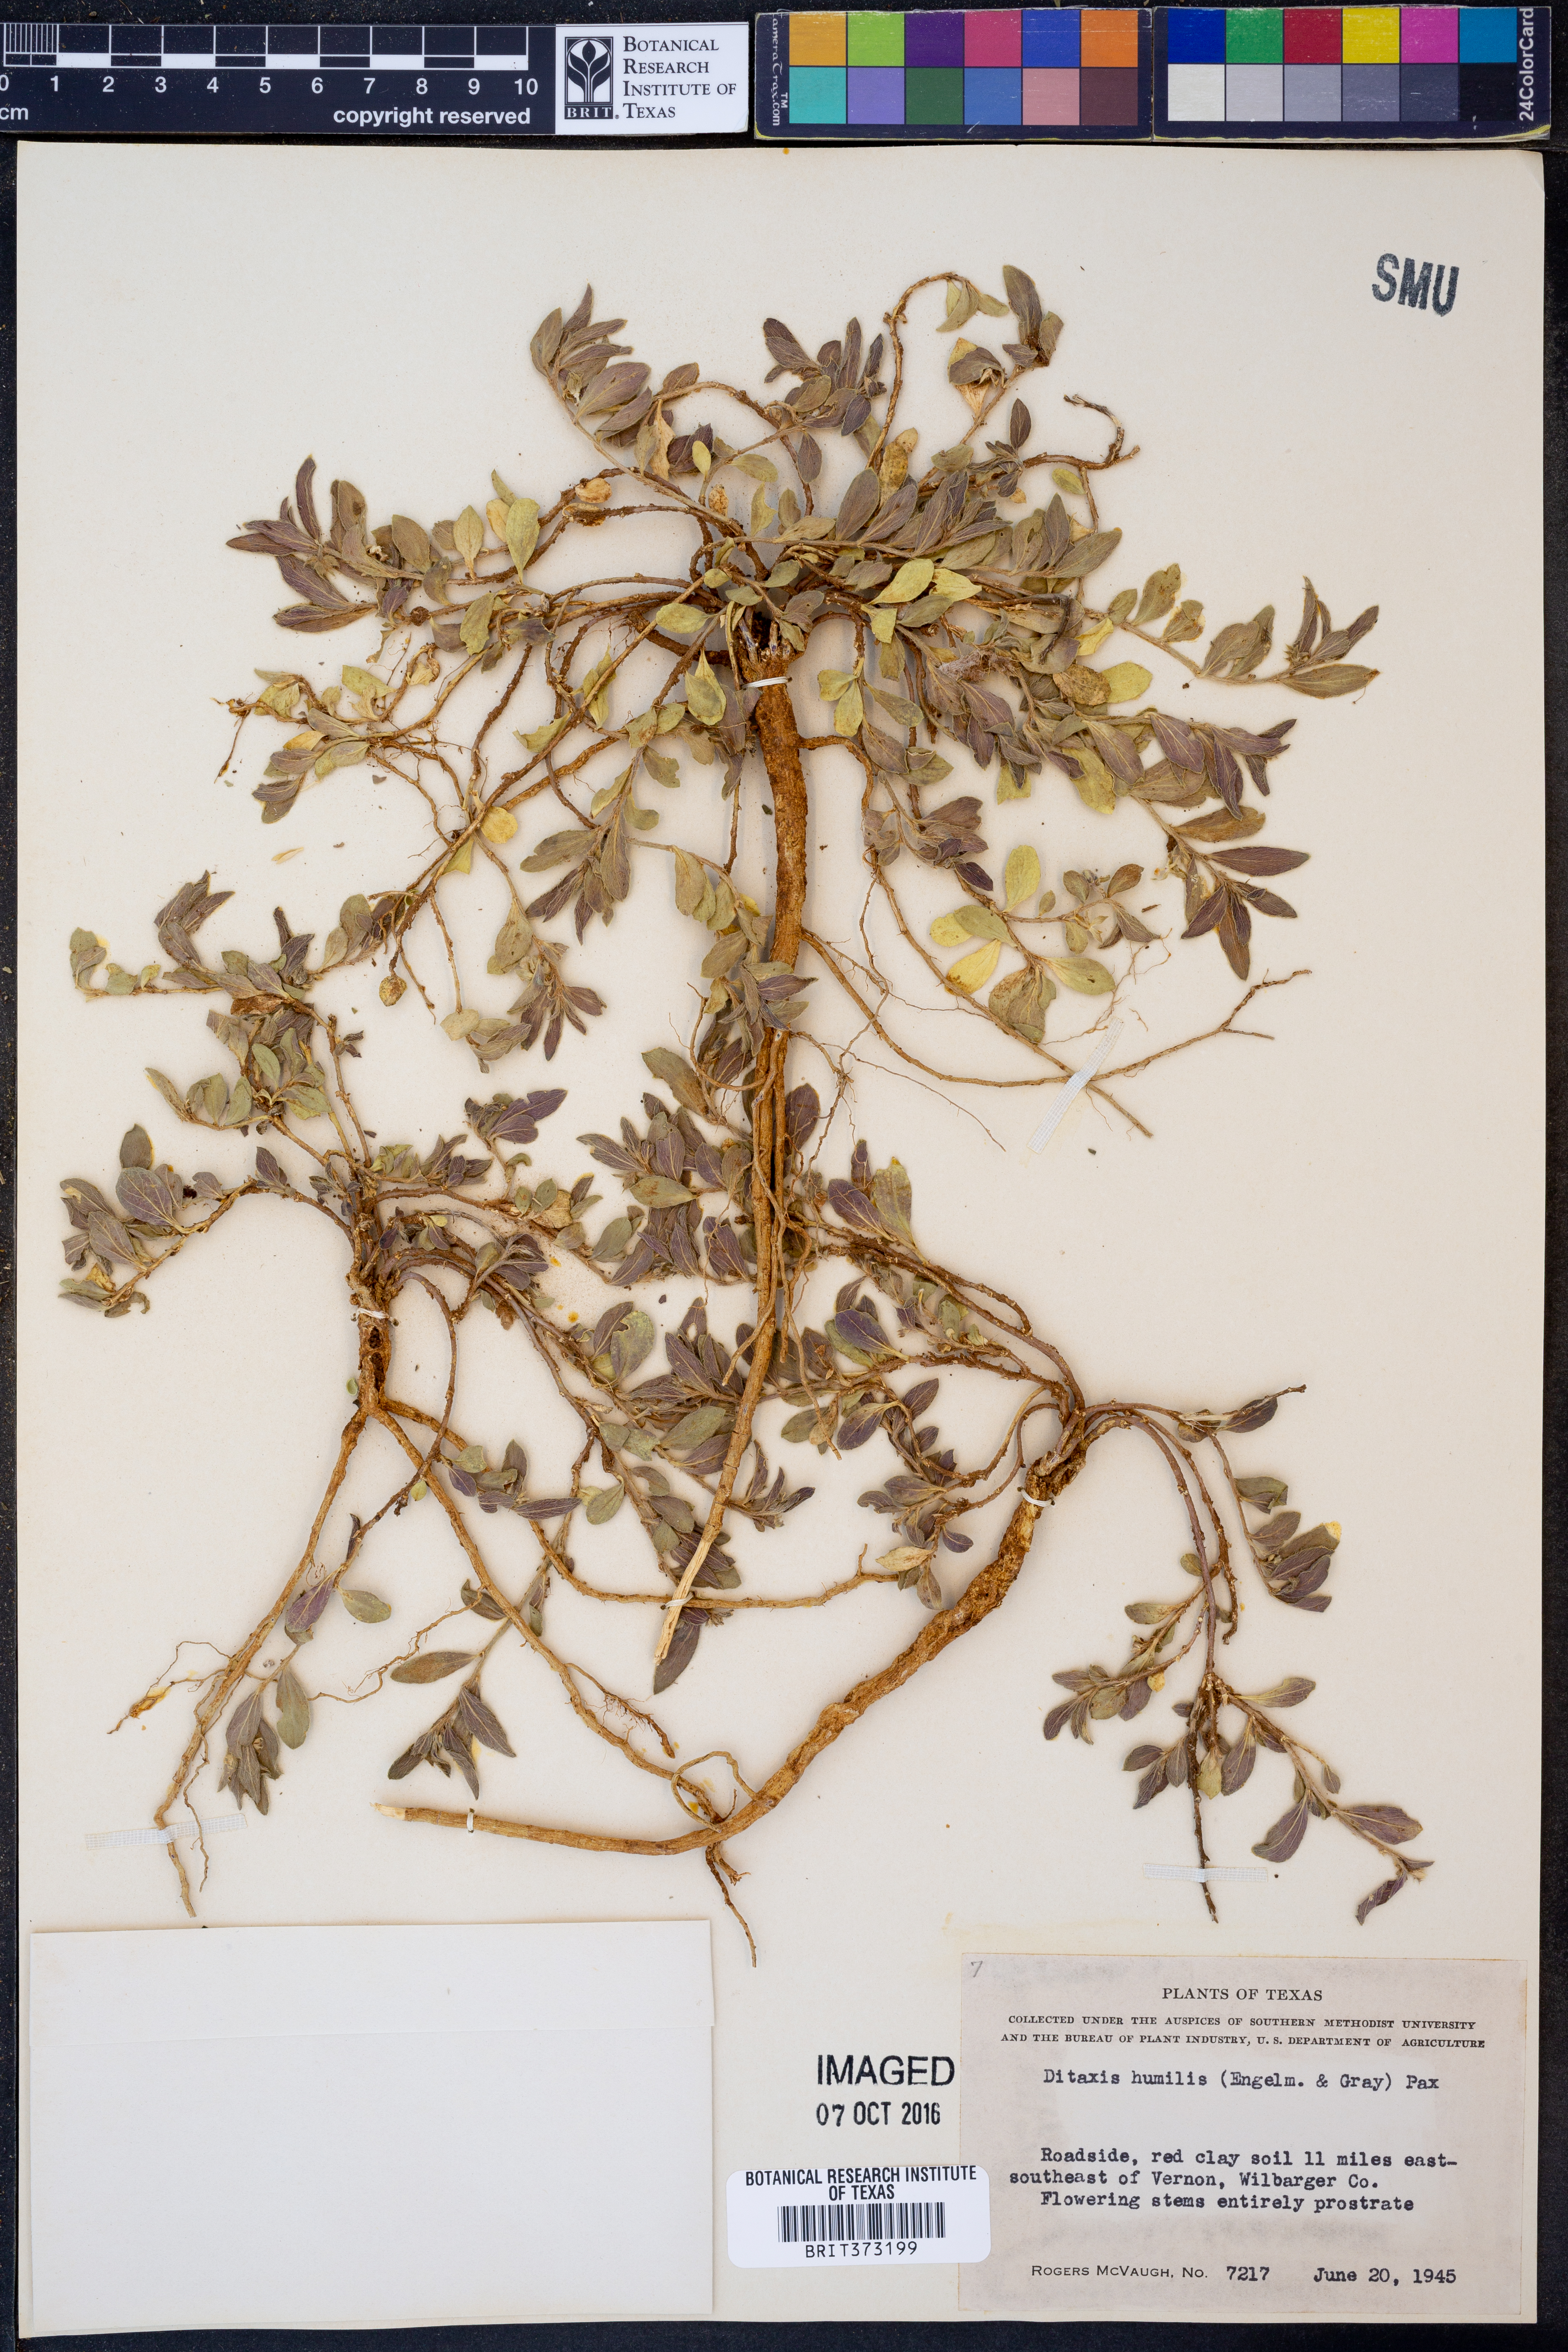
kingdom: Plantae
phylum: Tracheophyta
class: Magnoliopsida
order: Malpighiales
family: Euphorbiaceae
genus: Ditaxis
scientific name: Ditaxis humilis
